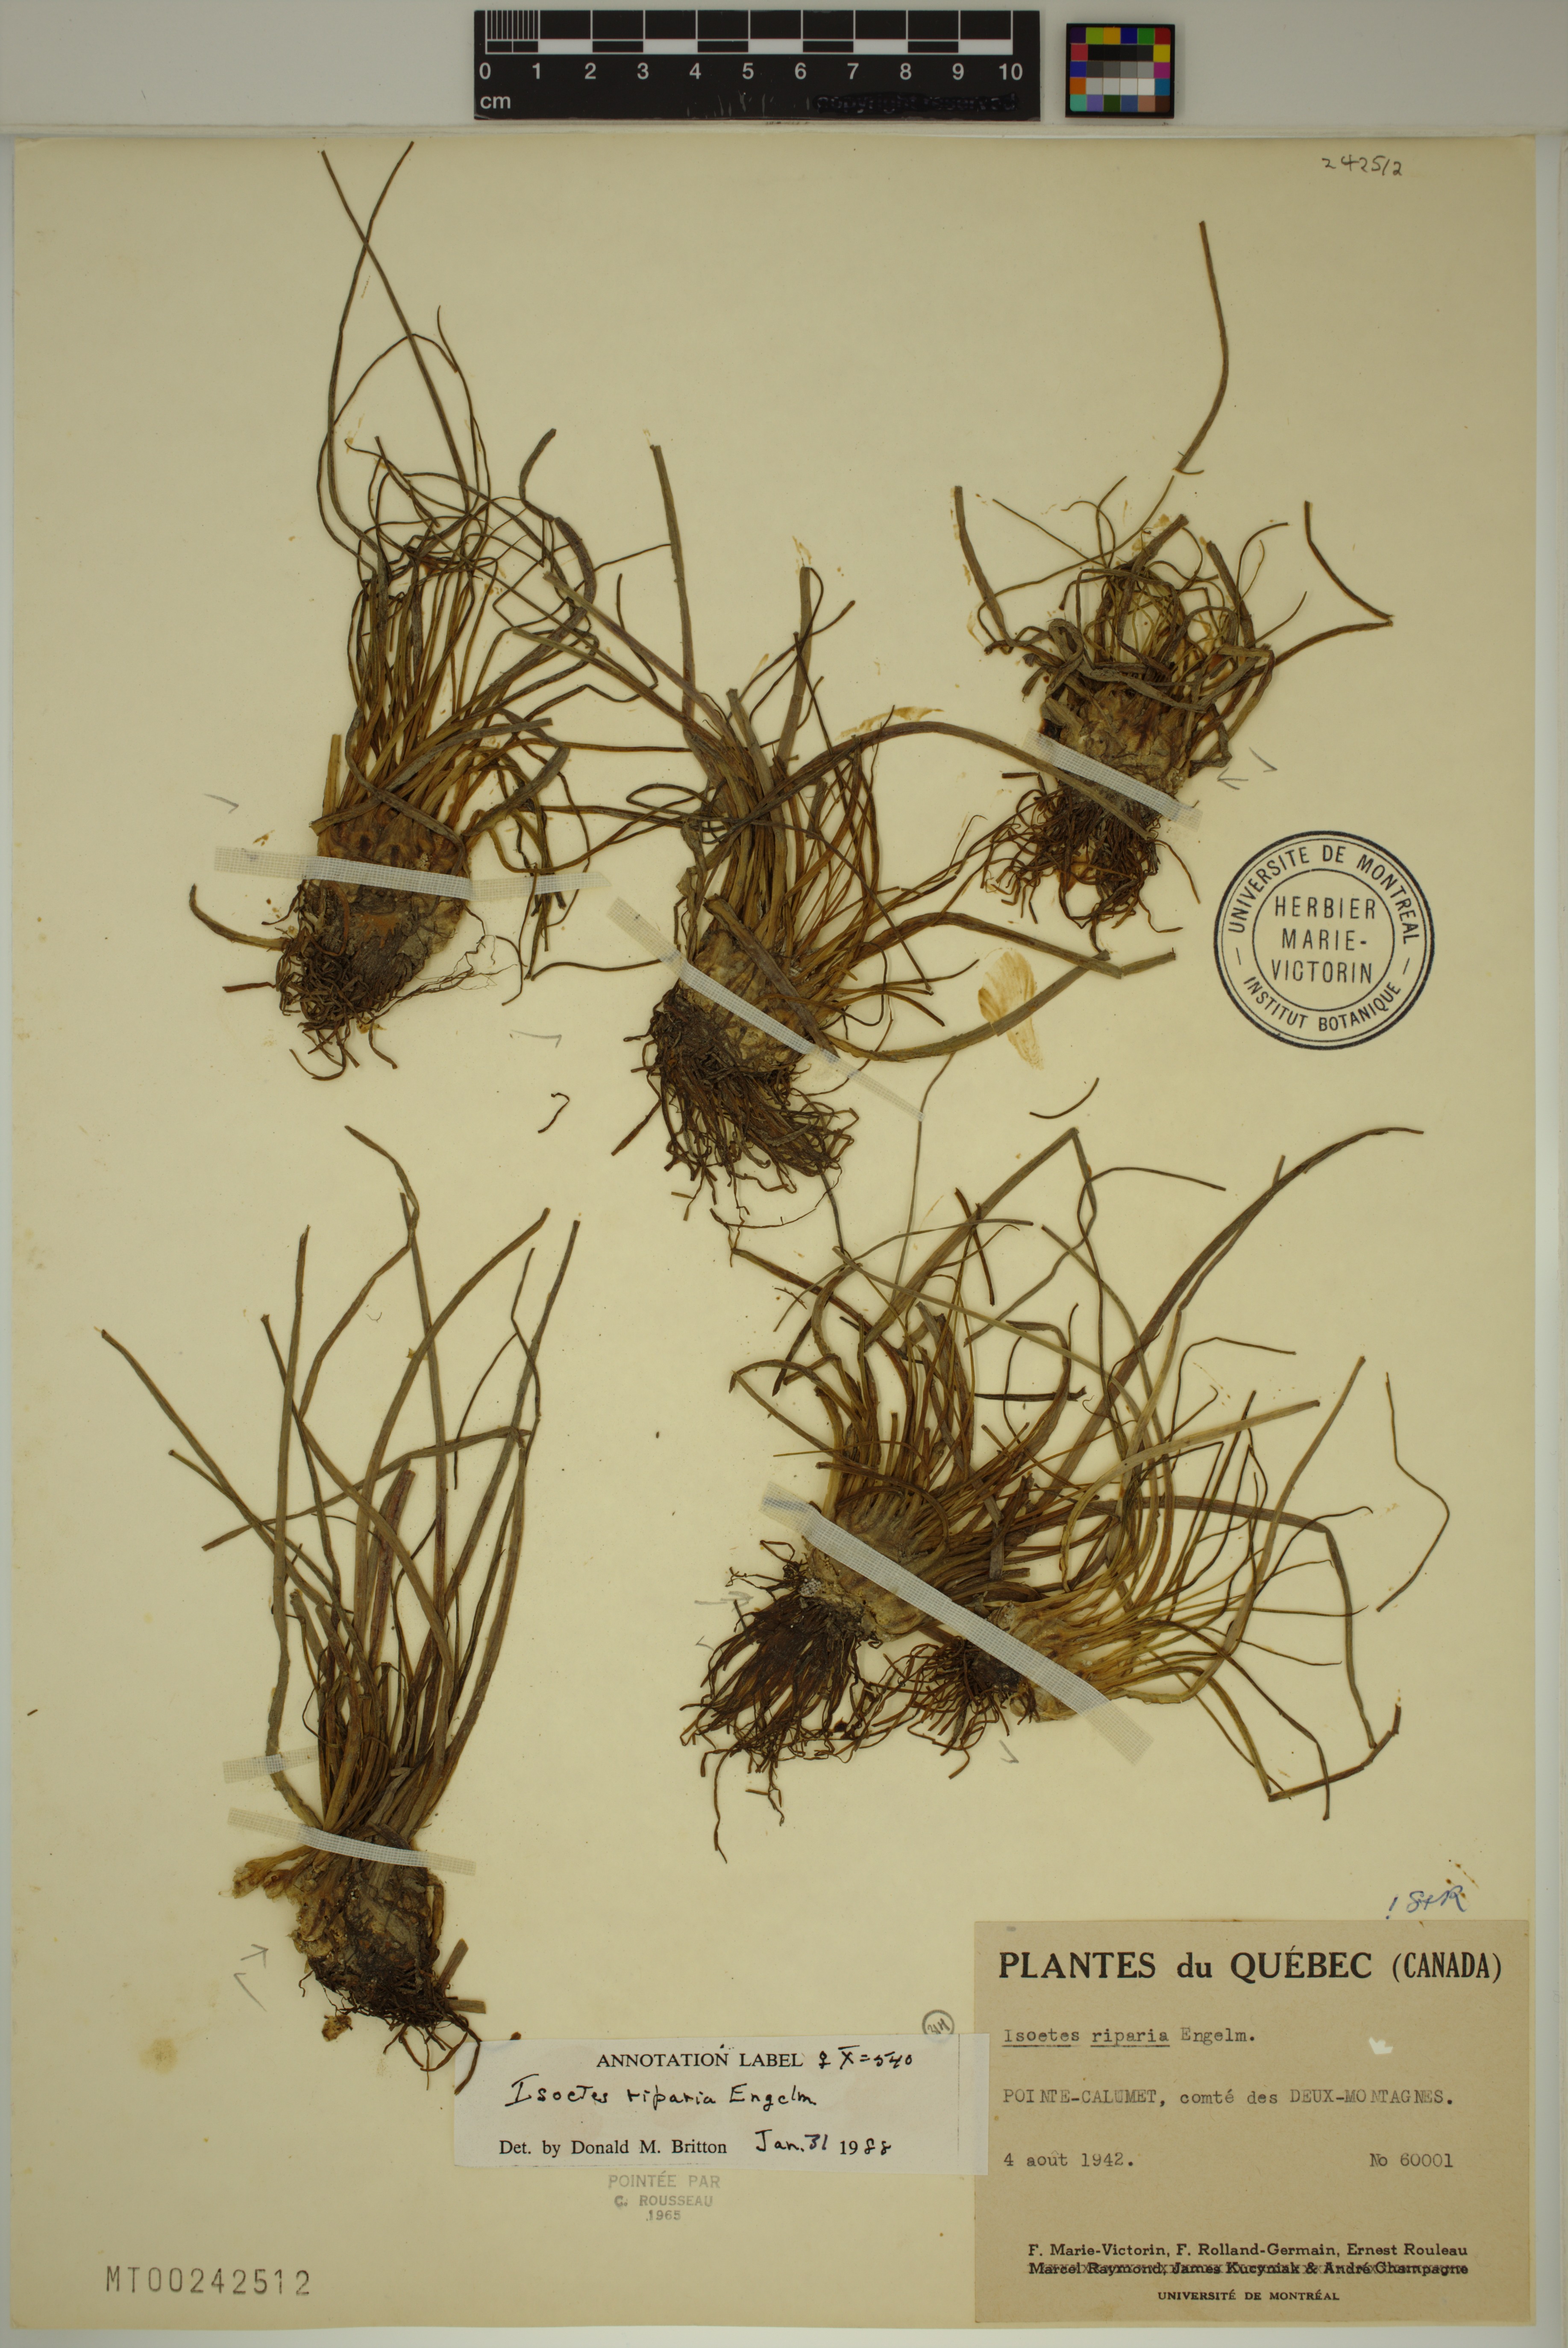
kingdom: Plantae
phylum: Tracheophyta
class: Lycopodiopsida
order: Isoetales
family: Isoetaceae
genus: Isoetes
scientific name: Isoetes septentrionalis
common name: Northern quillwort
